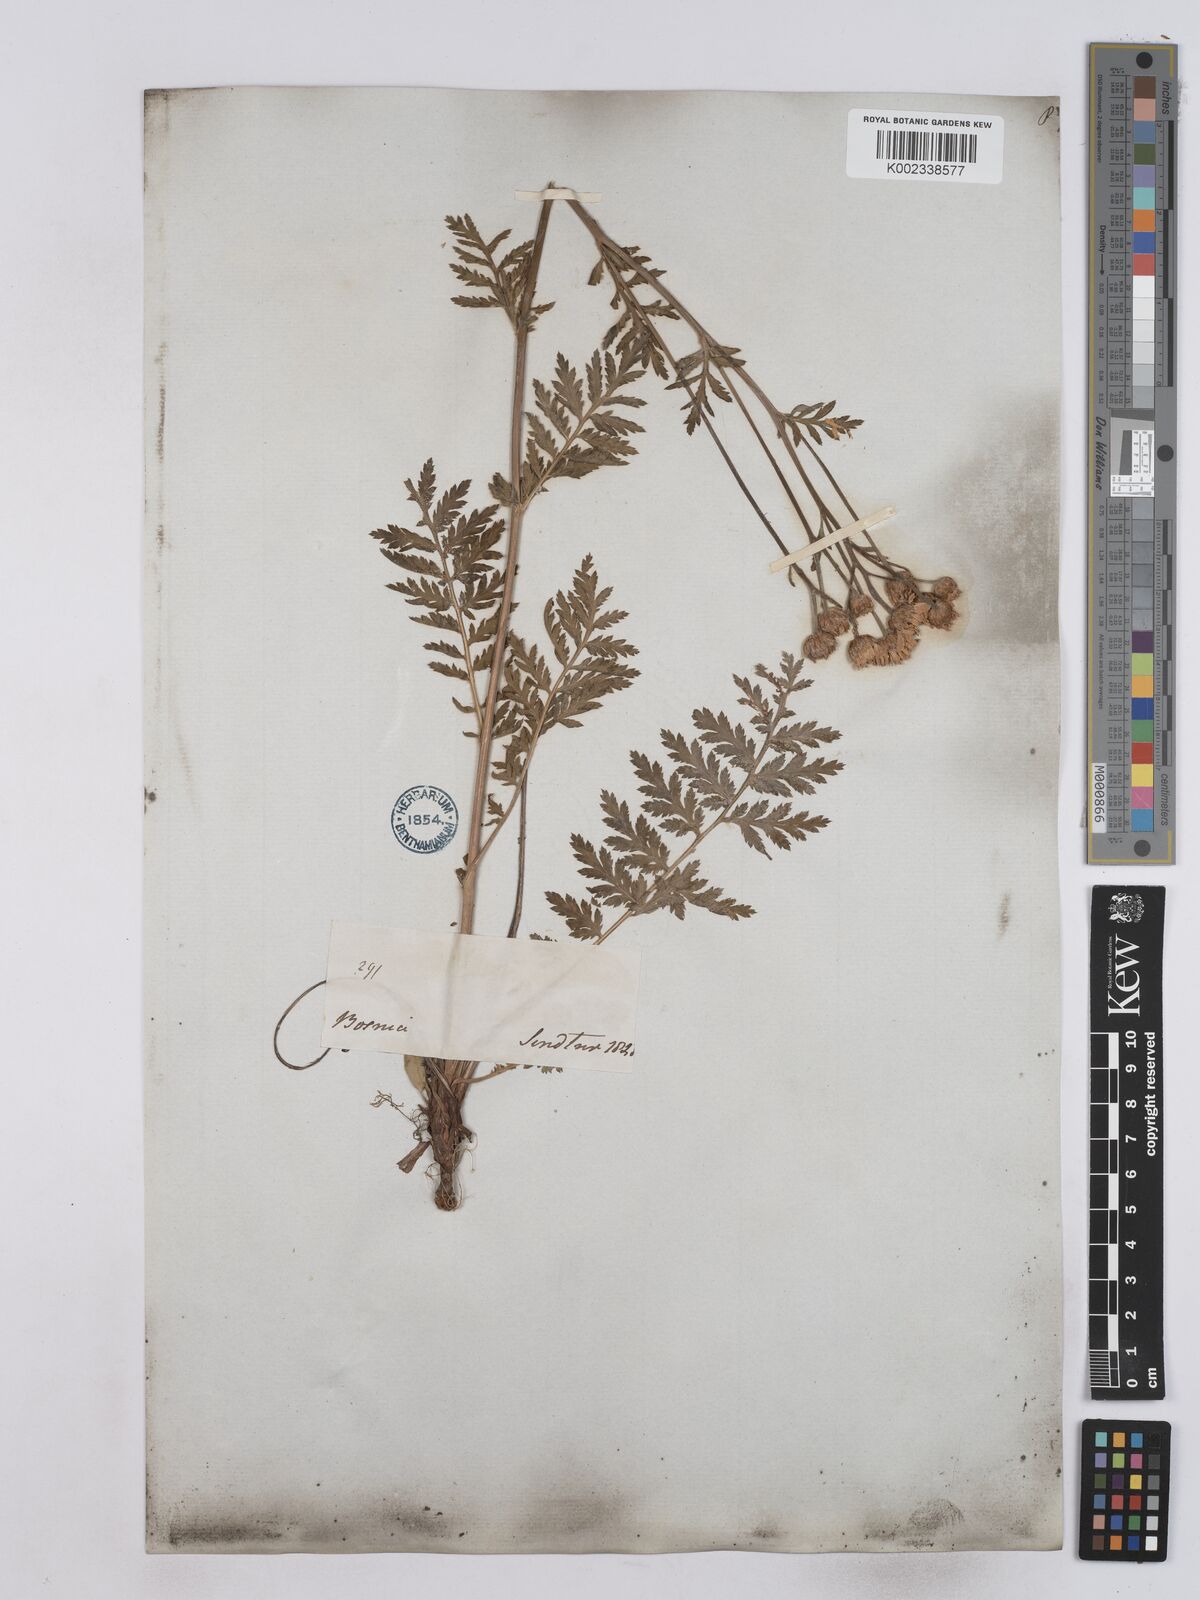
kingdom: Plantae
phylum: Tracheophyta
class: Magnoliopsida
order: Asterales
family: Asteraceae
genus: Tanacetum
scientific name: Tanacetum corymbosum
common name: Scentless feverfew
